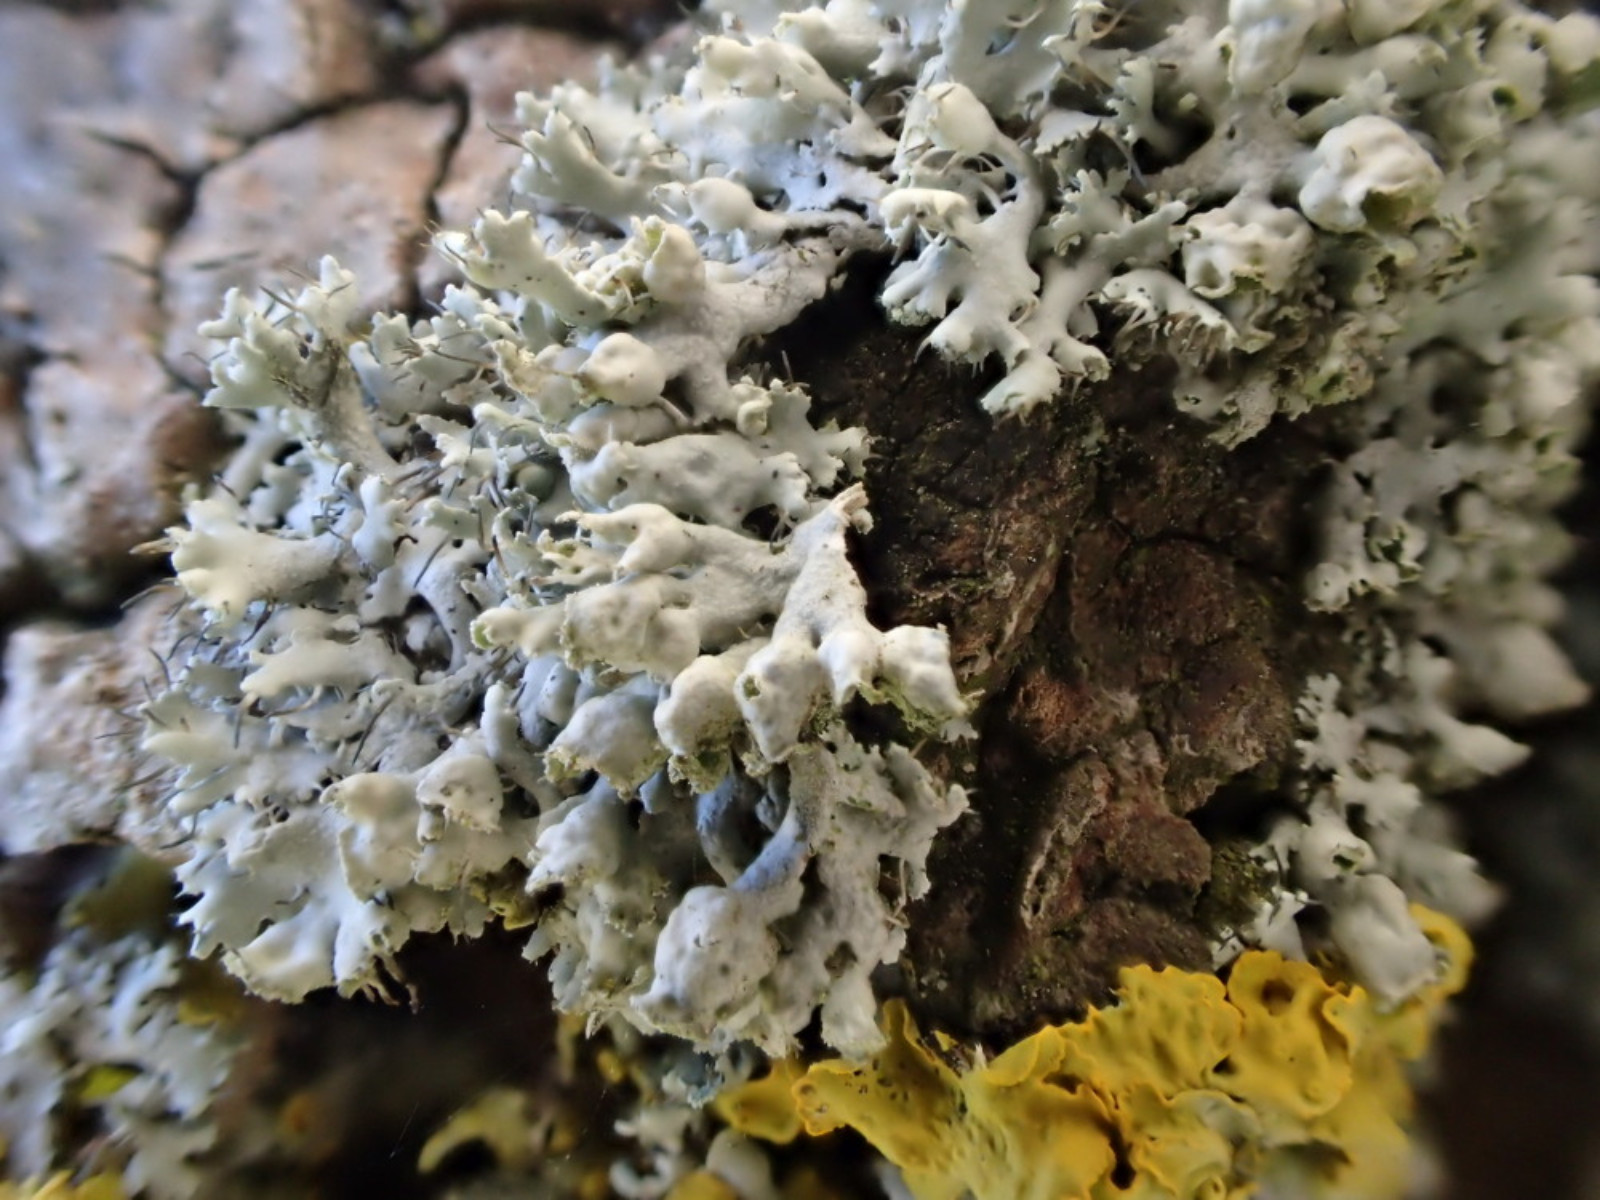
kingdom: Fungi
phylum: Ascomycota
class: Lecanoromycetes
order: Caliciales
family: Physciaceae
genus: Physcia
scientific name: Physcia adscendens
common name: hætte-rosetlav
